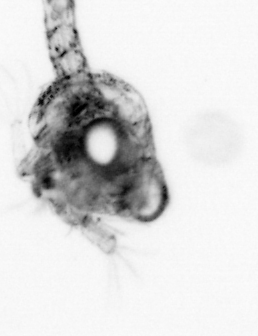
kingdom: Animalia
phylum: Arthropoda
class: Malacostraca
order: Decapoda
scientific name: Decapoda
